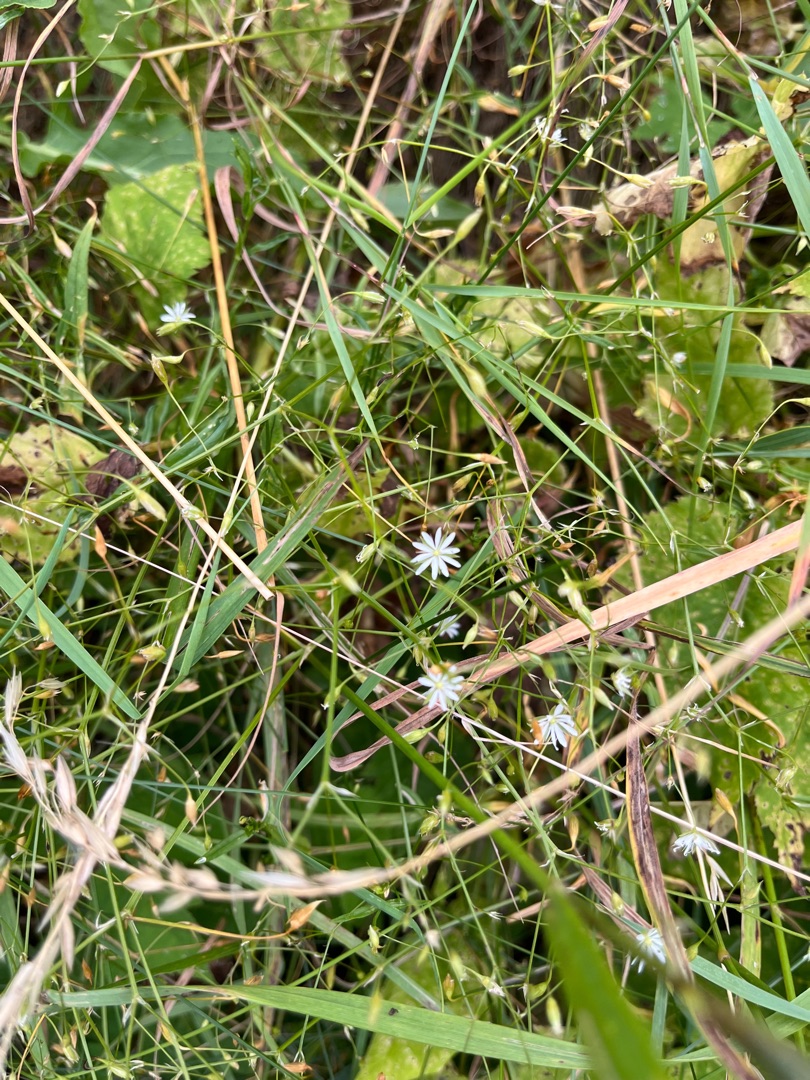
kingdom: Plantae
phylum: Tracheophyta
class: Magnoliopsida
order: Caryophyllales
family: Caryophyllaceae
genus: Stellaria
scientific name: Stellaria graminea
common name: Græsbladet fladstjerne
